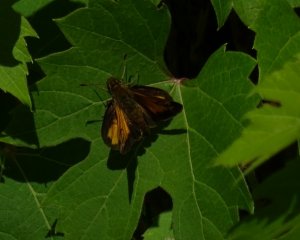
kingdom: Animalia
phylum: Arthropoda
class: Insecta
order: Lepidoptera
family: Hesperiidae
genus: Lon
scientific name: Lon hobomok
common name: Hobomok Skipper
